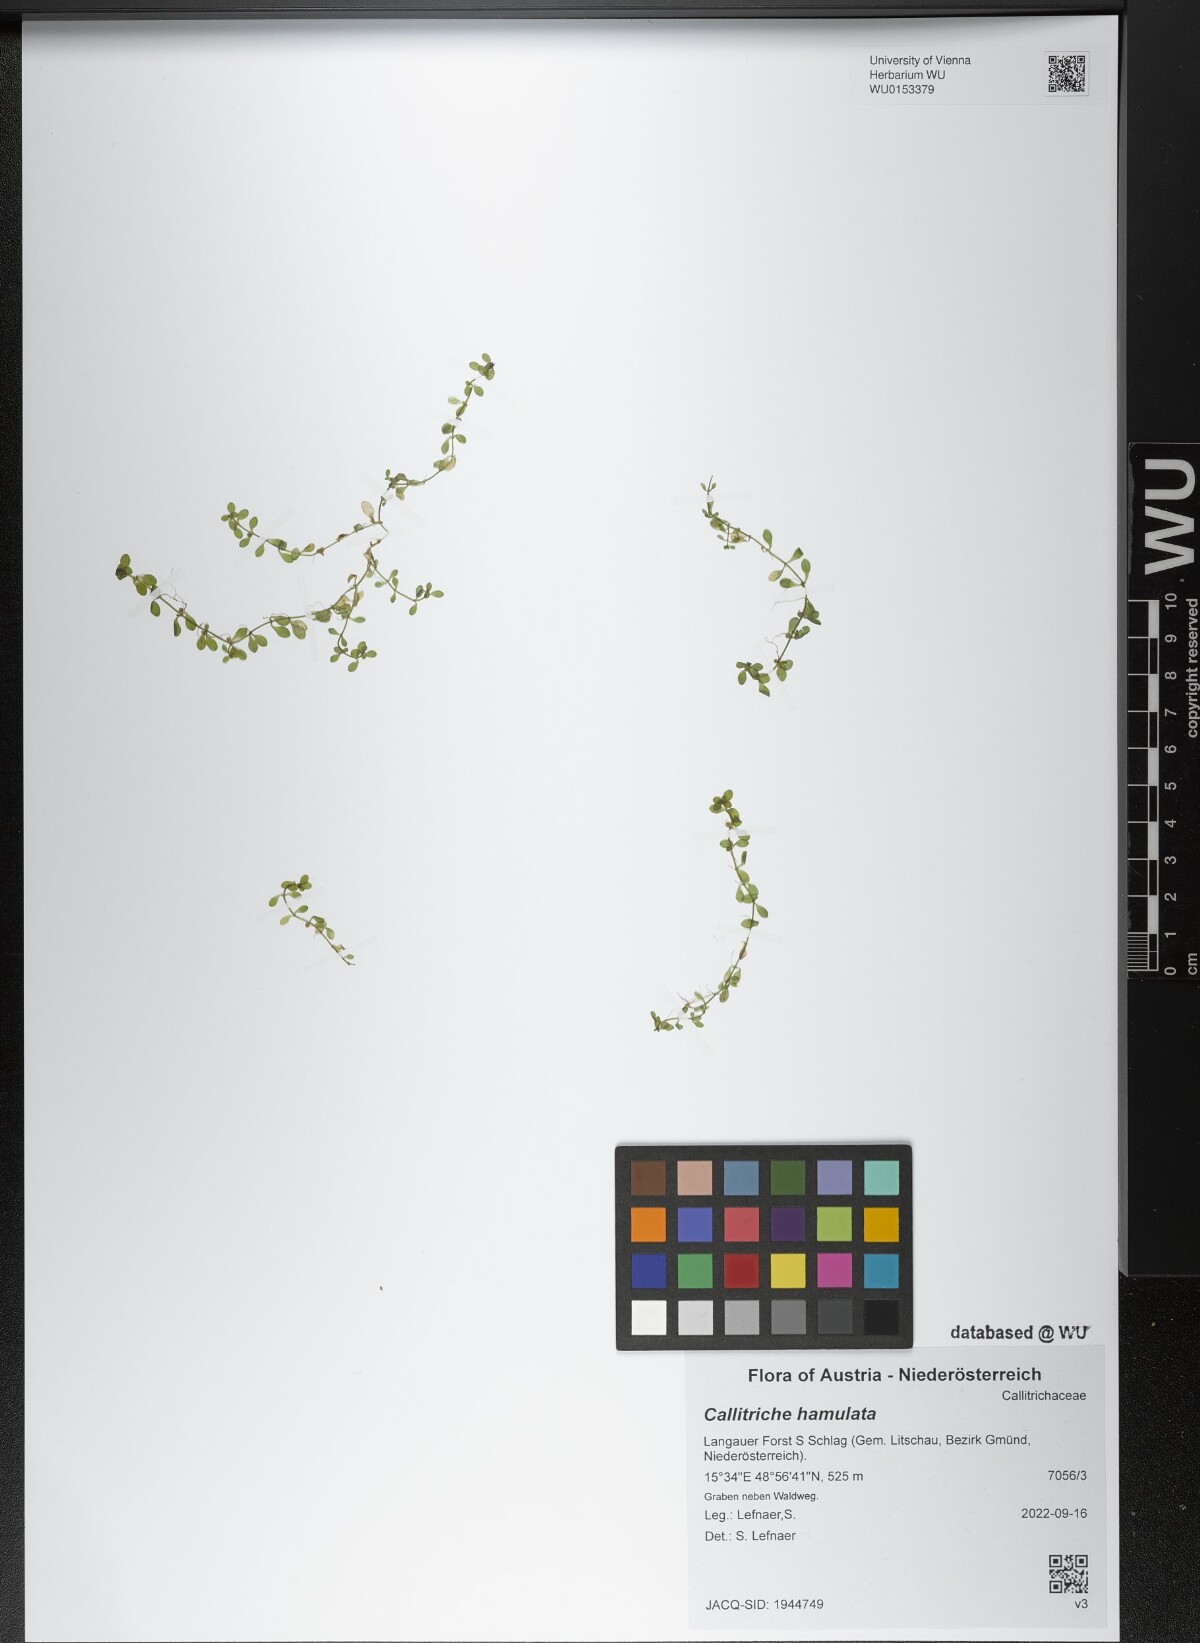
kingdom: Plantae
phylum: Tracheophyta
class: Magnoliopsida
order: Lamiales
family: Plantaginaceae
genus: Callitriche
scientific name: Callitriche hamulata
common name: Intermediate water-starwort
